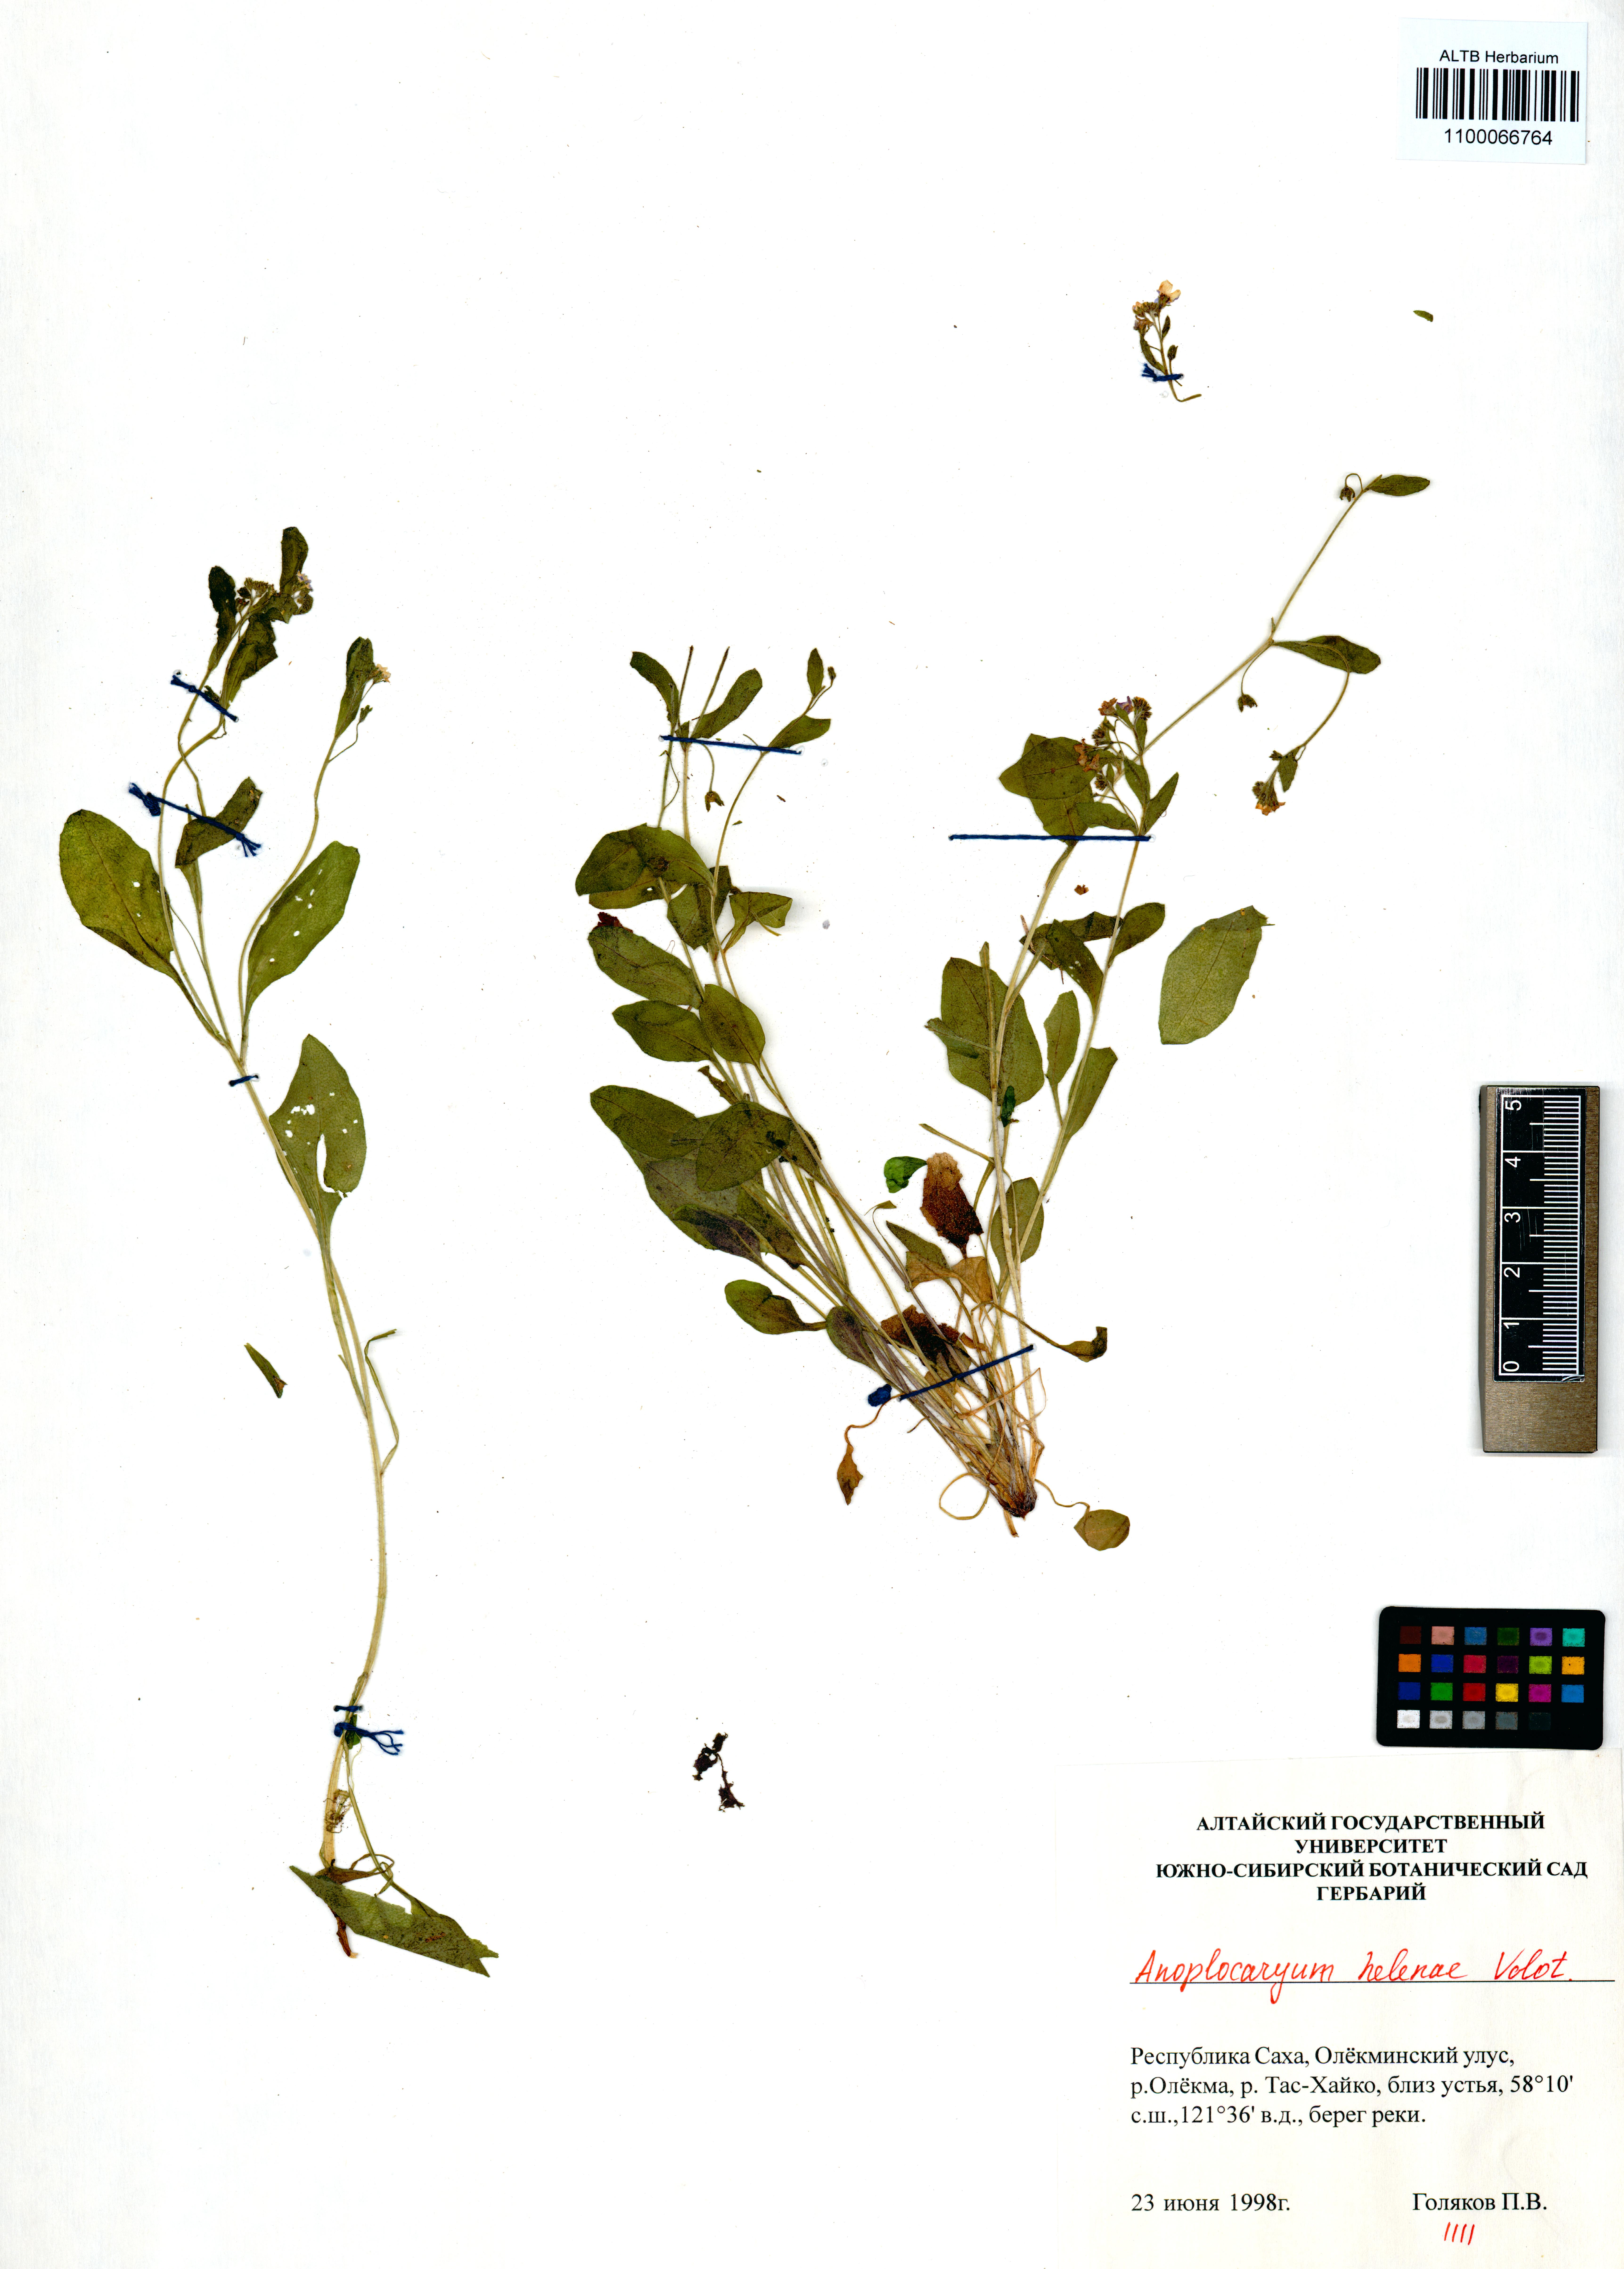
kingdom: Plantae
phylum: Tracheophyta
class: Magnoliopsida
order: Boraginales
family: Boraginaceae
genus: Anoplocaryum
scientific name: Anoplocaryum helenae
